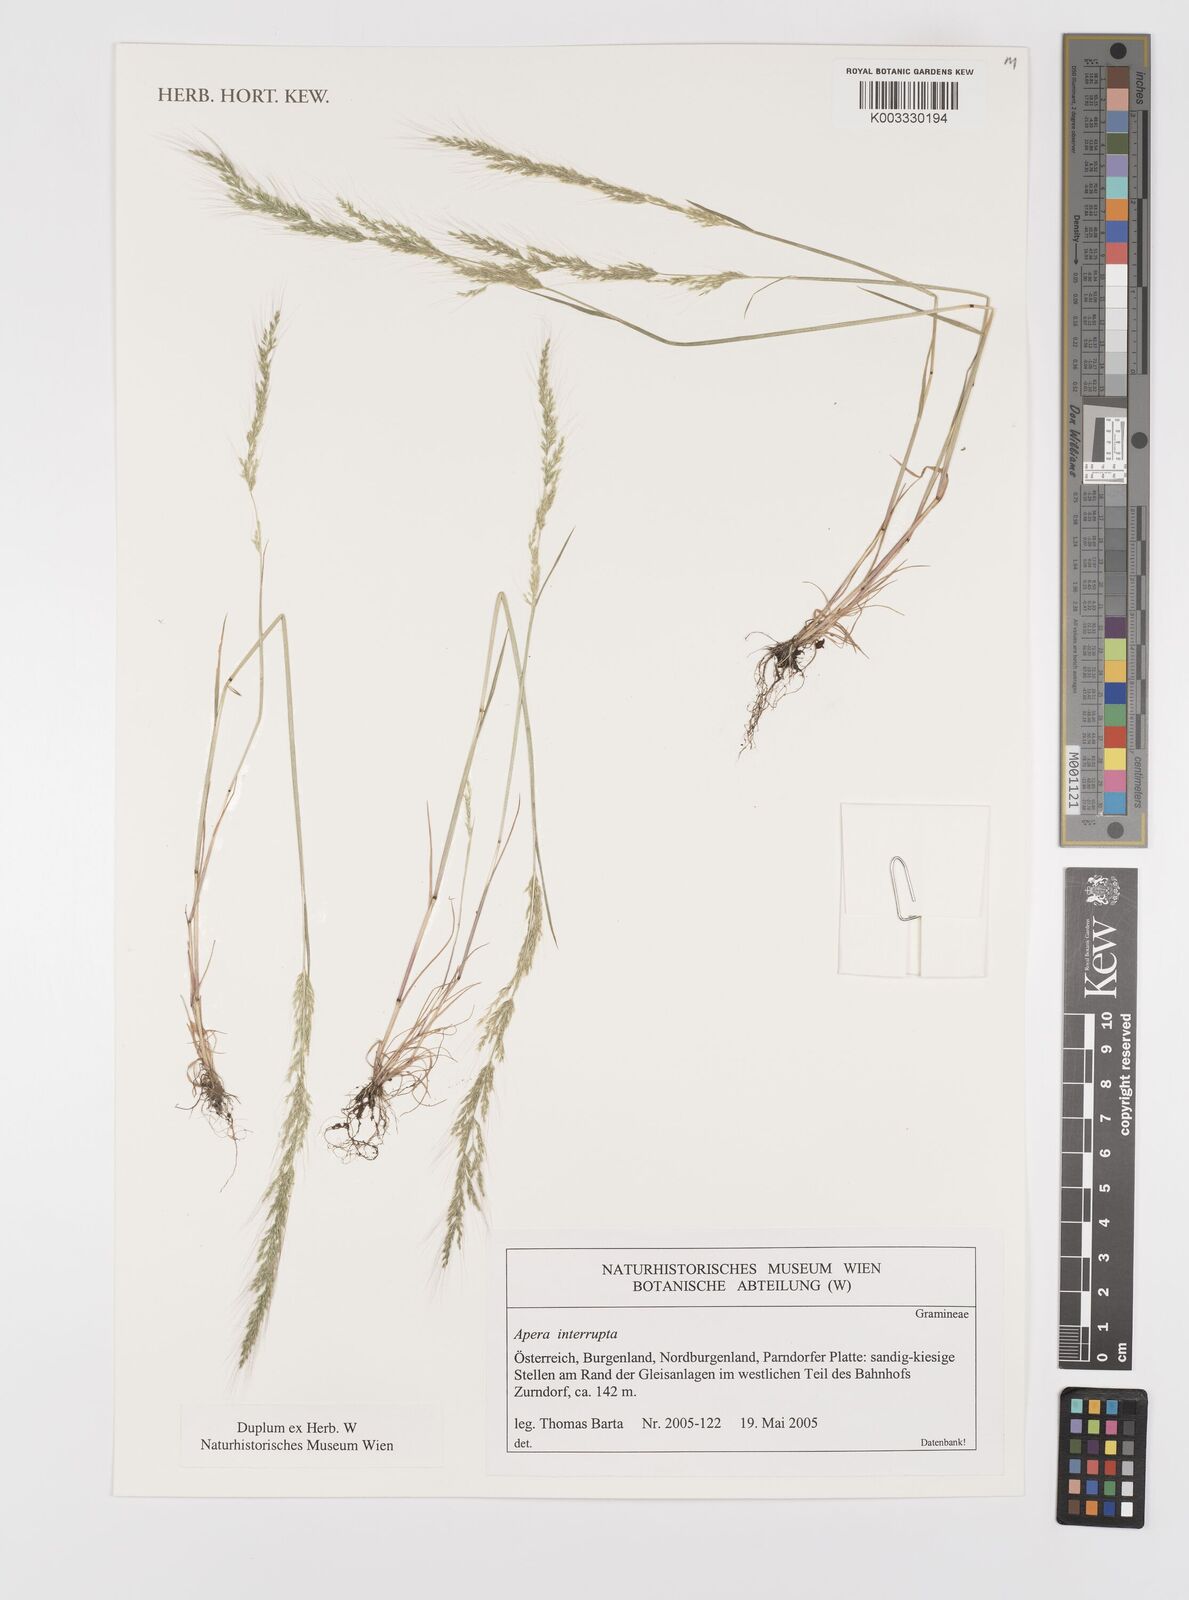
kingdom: Plantae
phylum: Tracheophyta
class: Liliopsida
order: Poales
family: Poaceae
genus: Apera
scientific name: Apera interrupta
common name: Dense silky-bent
